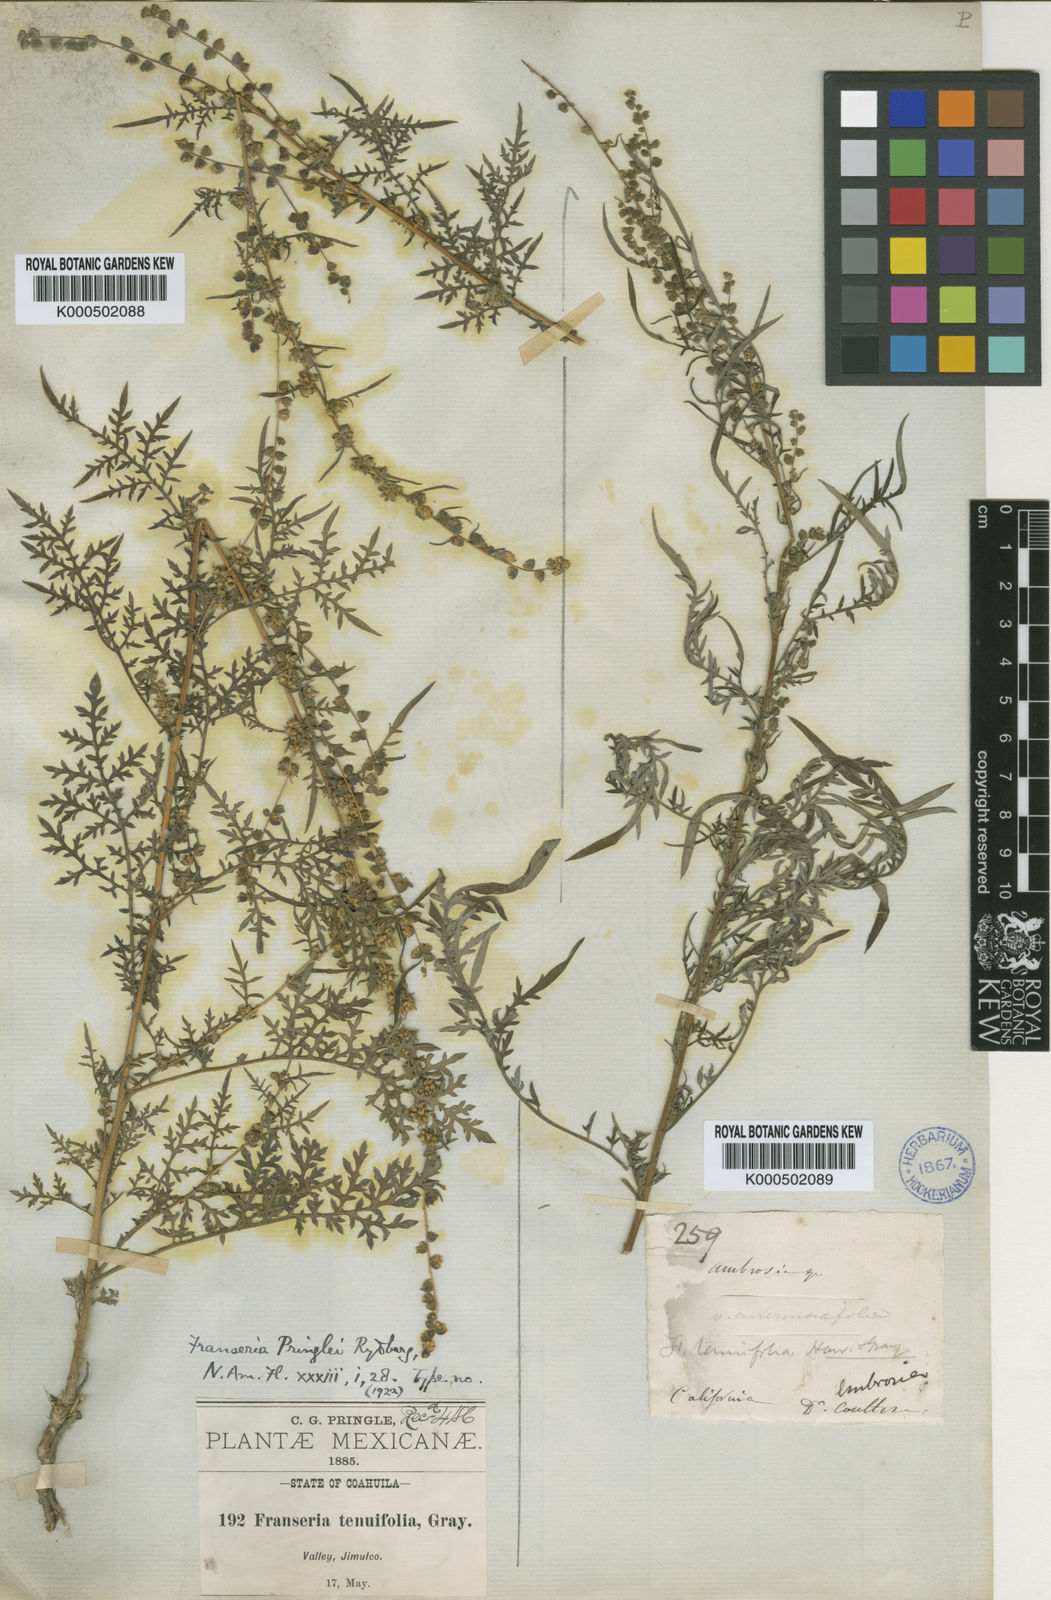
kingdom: Plantae
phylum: Tracheophyta
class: Magnoliopsida
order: Asterales
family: Asteraceae
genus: Ambrosia
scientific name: Ambrosia
